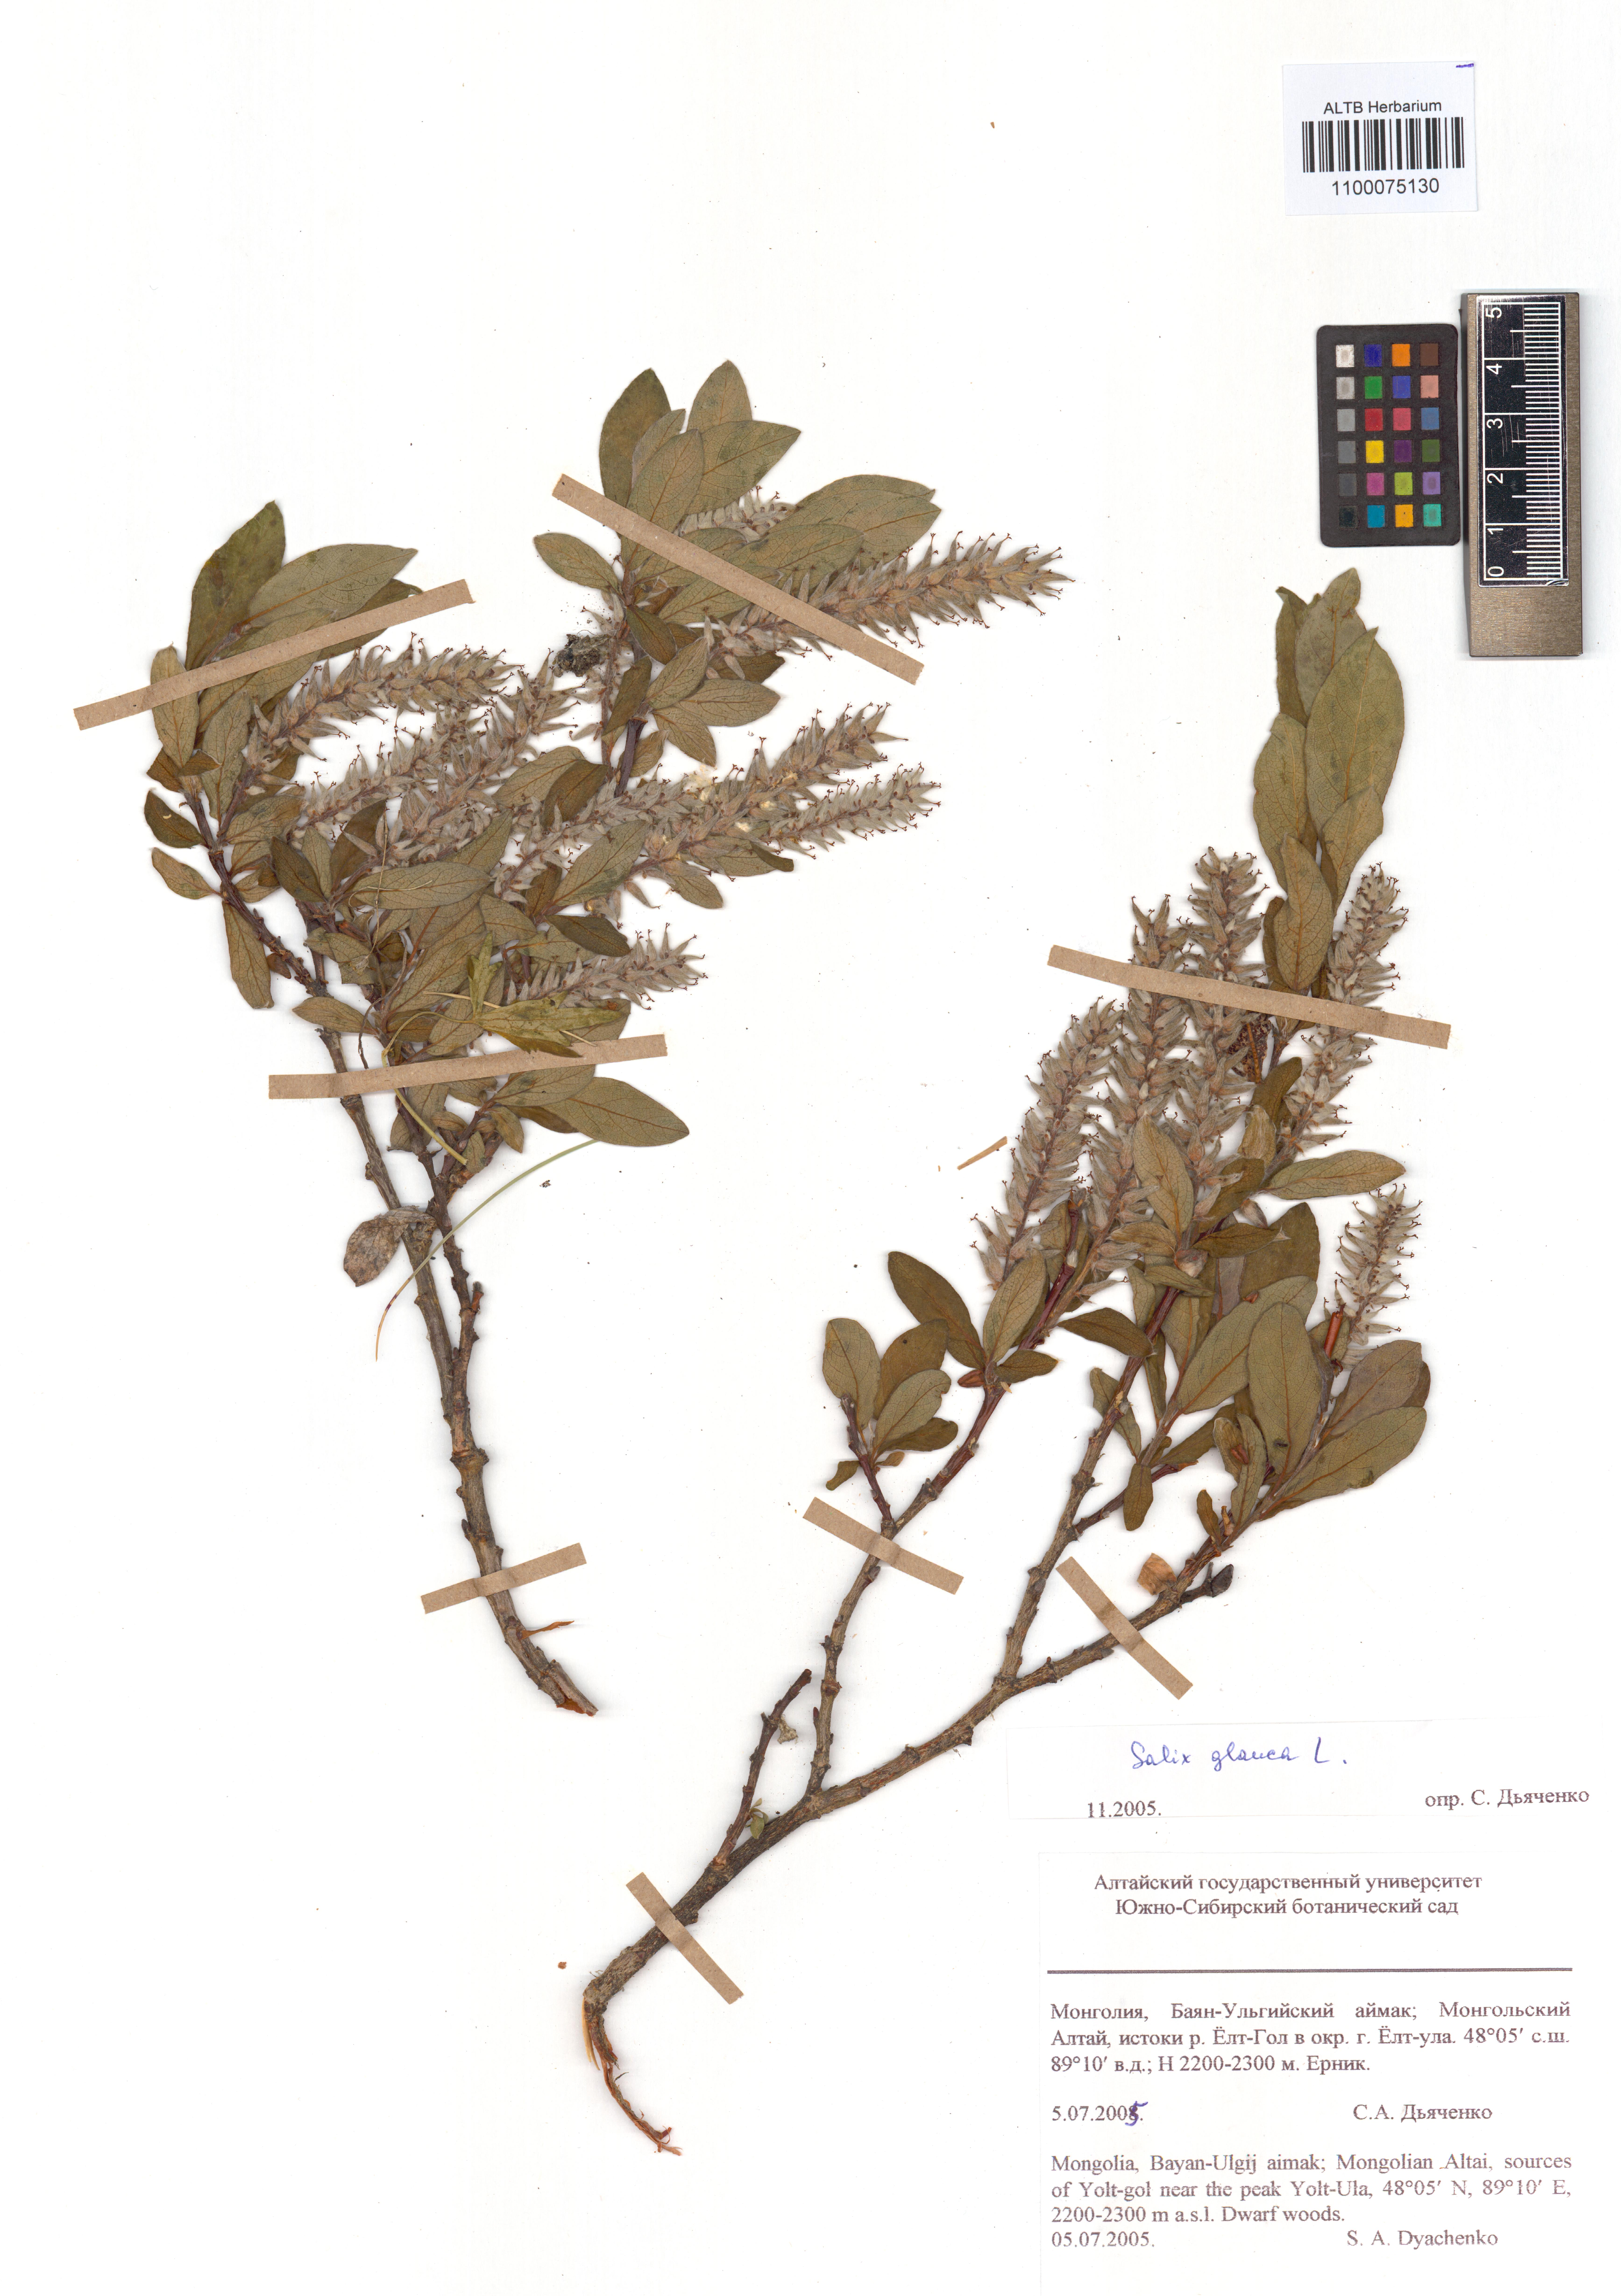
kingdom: Plantae
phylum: Tracheophyta
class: Magnoliopsida
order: Malpighiales
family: Salicaceae
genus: Salix
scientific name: Salix glauca
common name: Glaucous willow
